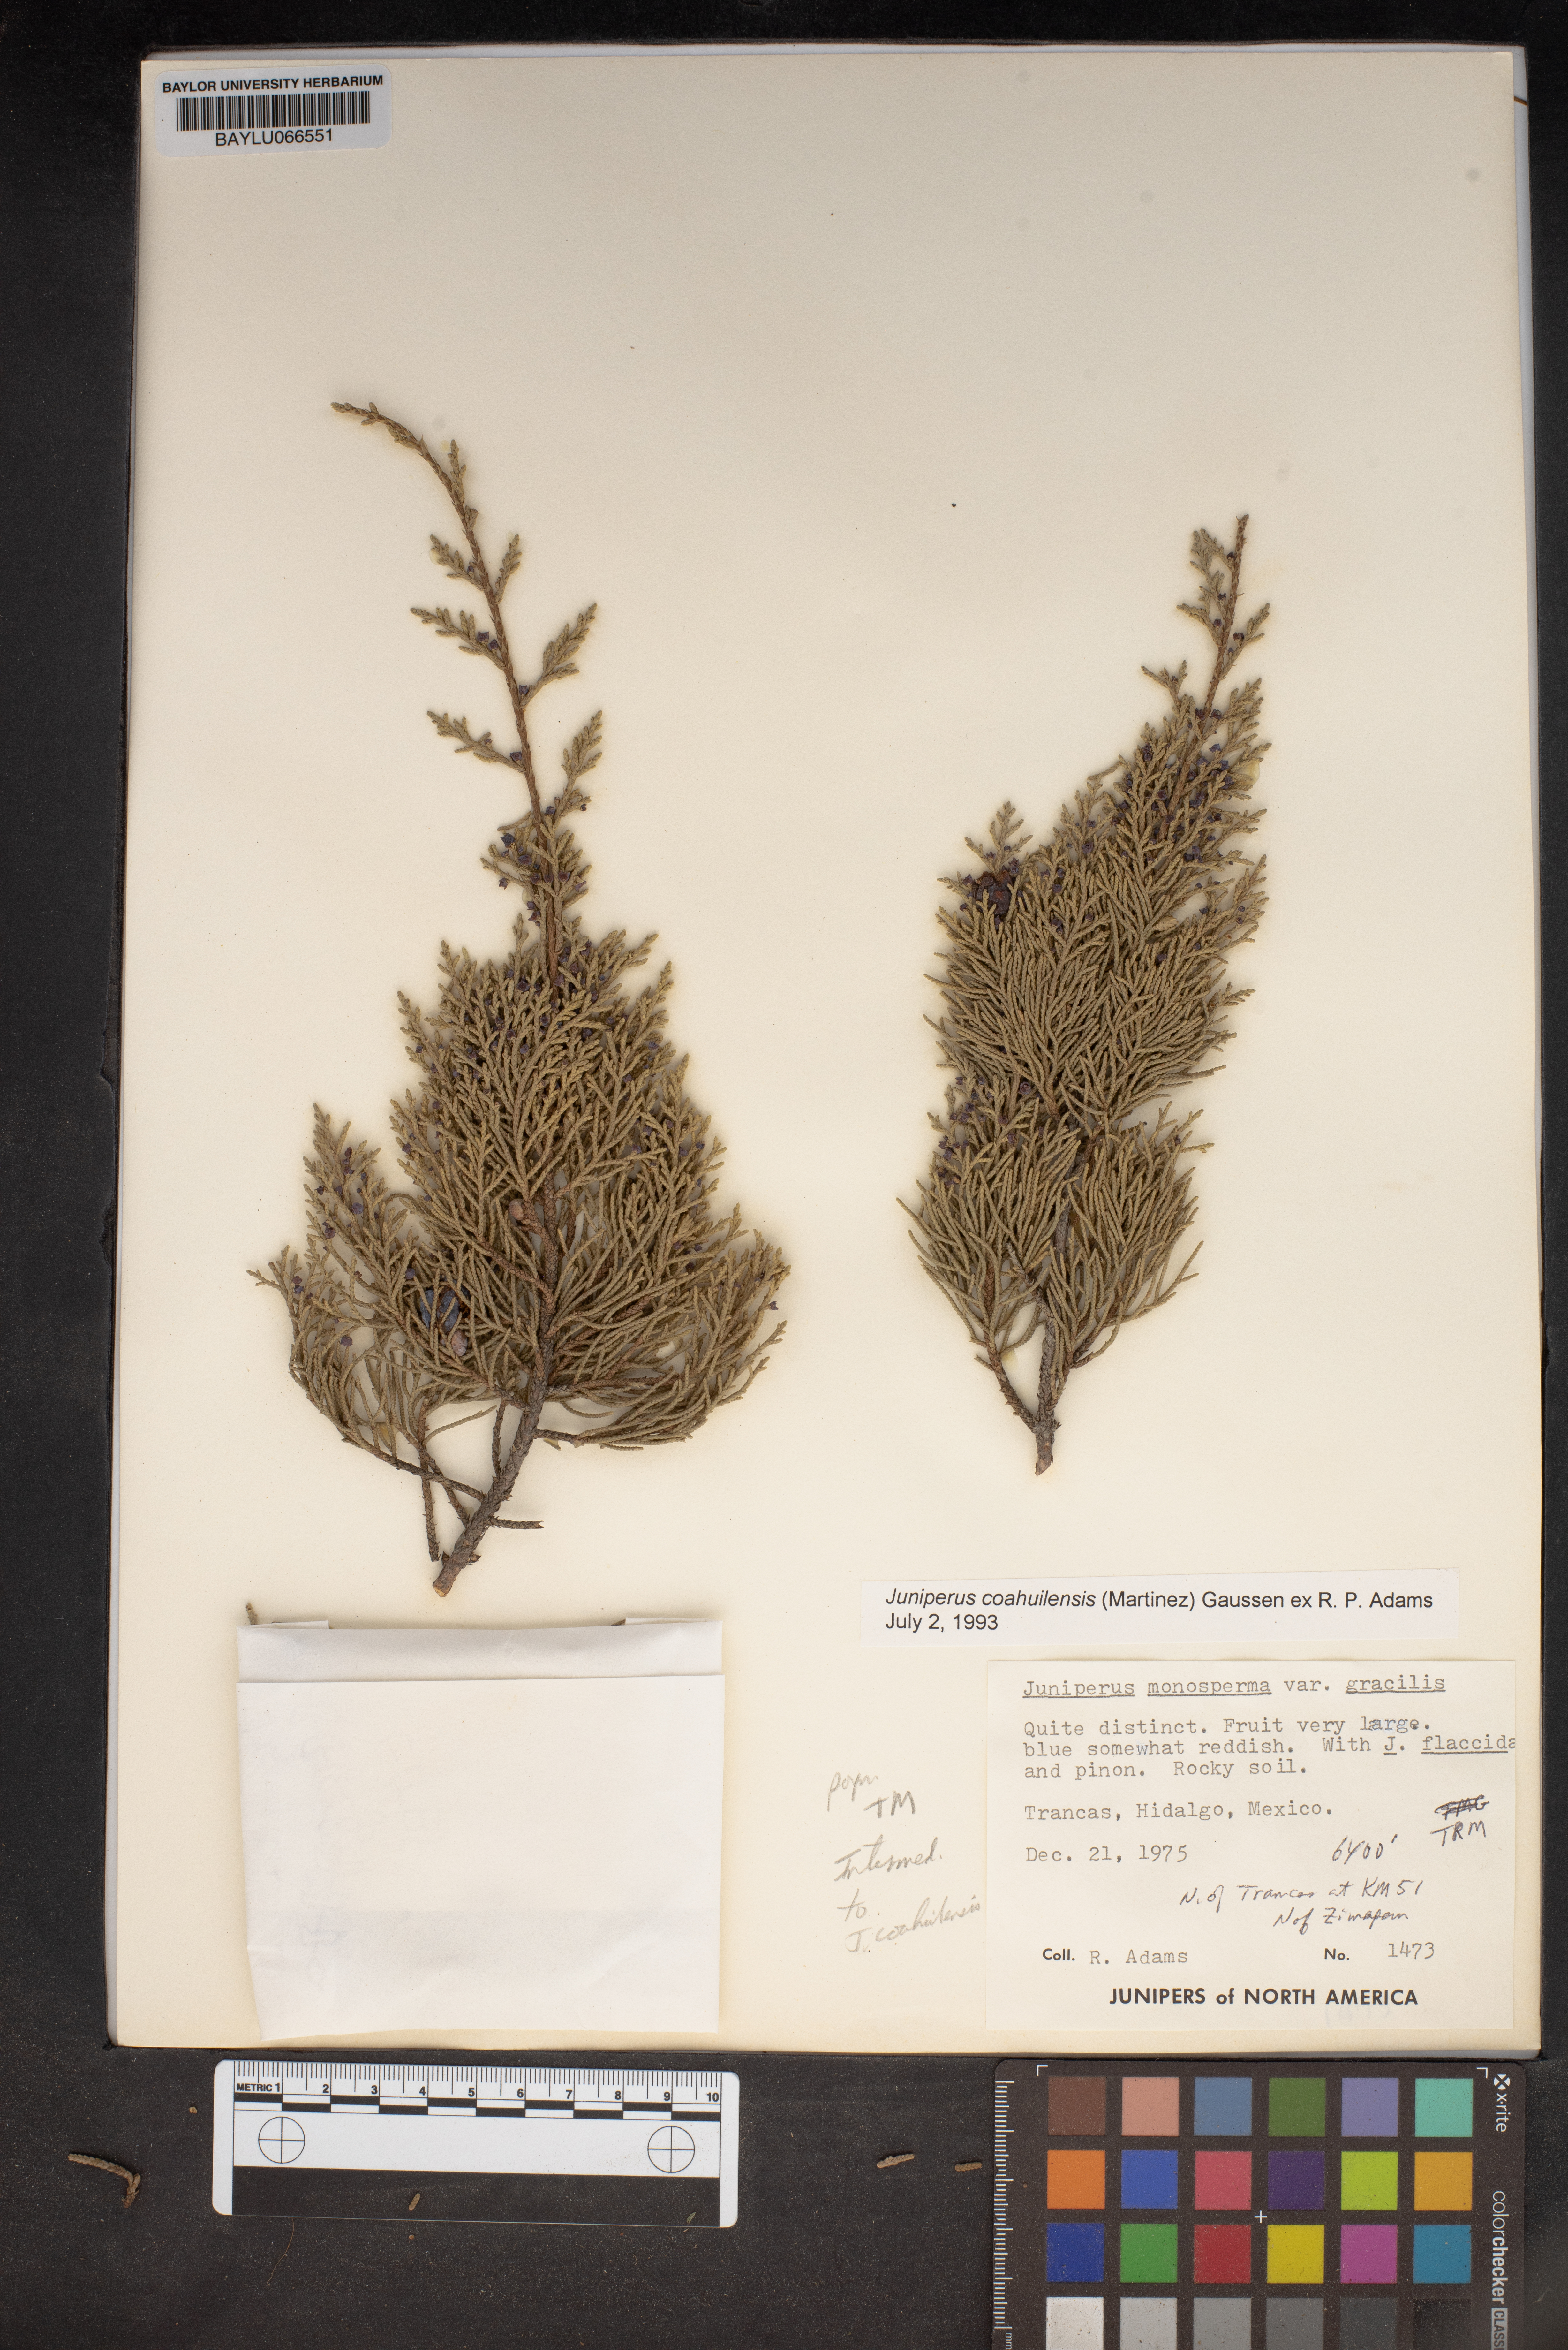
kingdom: Plantae
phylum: Tracheophyta
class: Pinopsida
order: Pinales
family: Cupressaceae
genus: Juniperus
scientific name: Juniperus coahuilensis
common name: Roseberry
